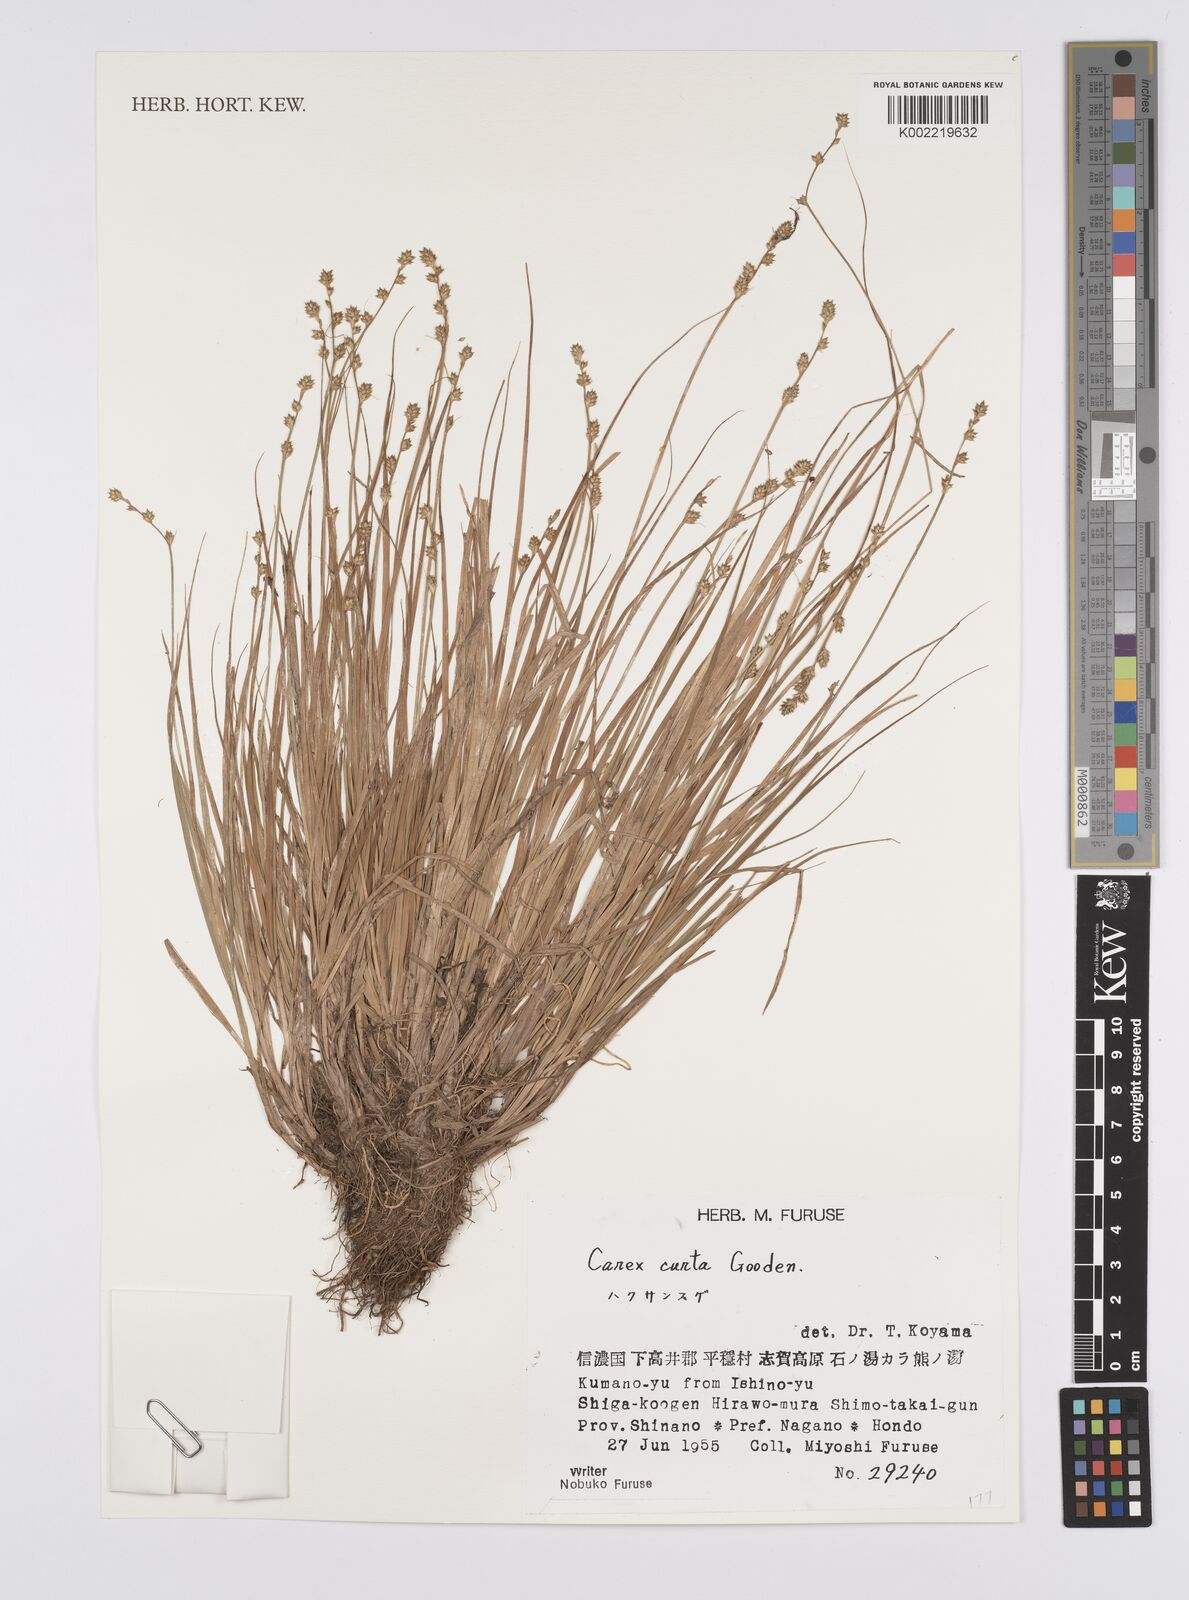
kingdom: Plantae
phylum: Tracheophyta
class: Liliopsida
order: Poales
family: Cyperaceae
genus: Carex
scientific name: Carex canescens
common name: White sedge
